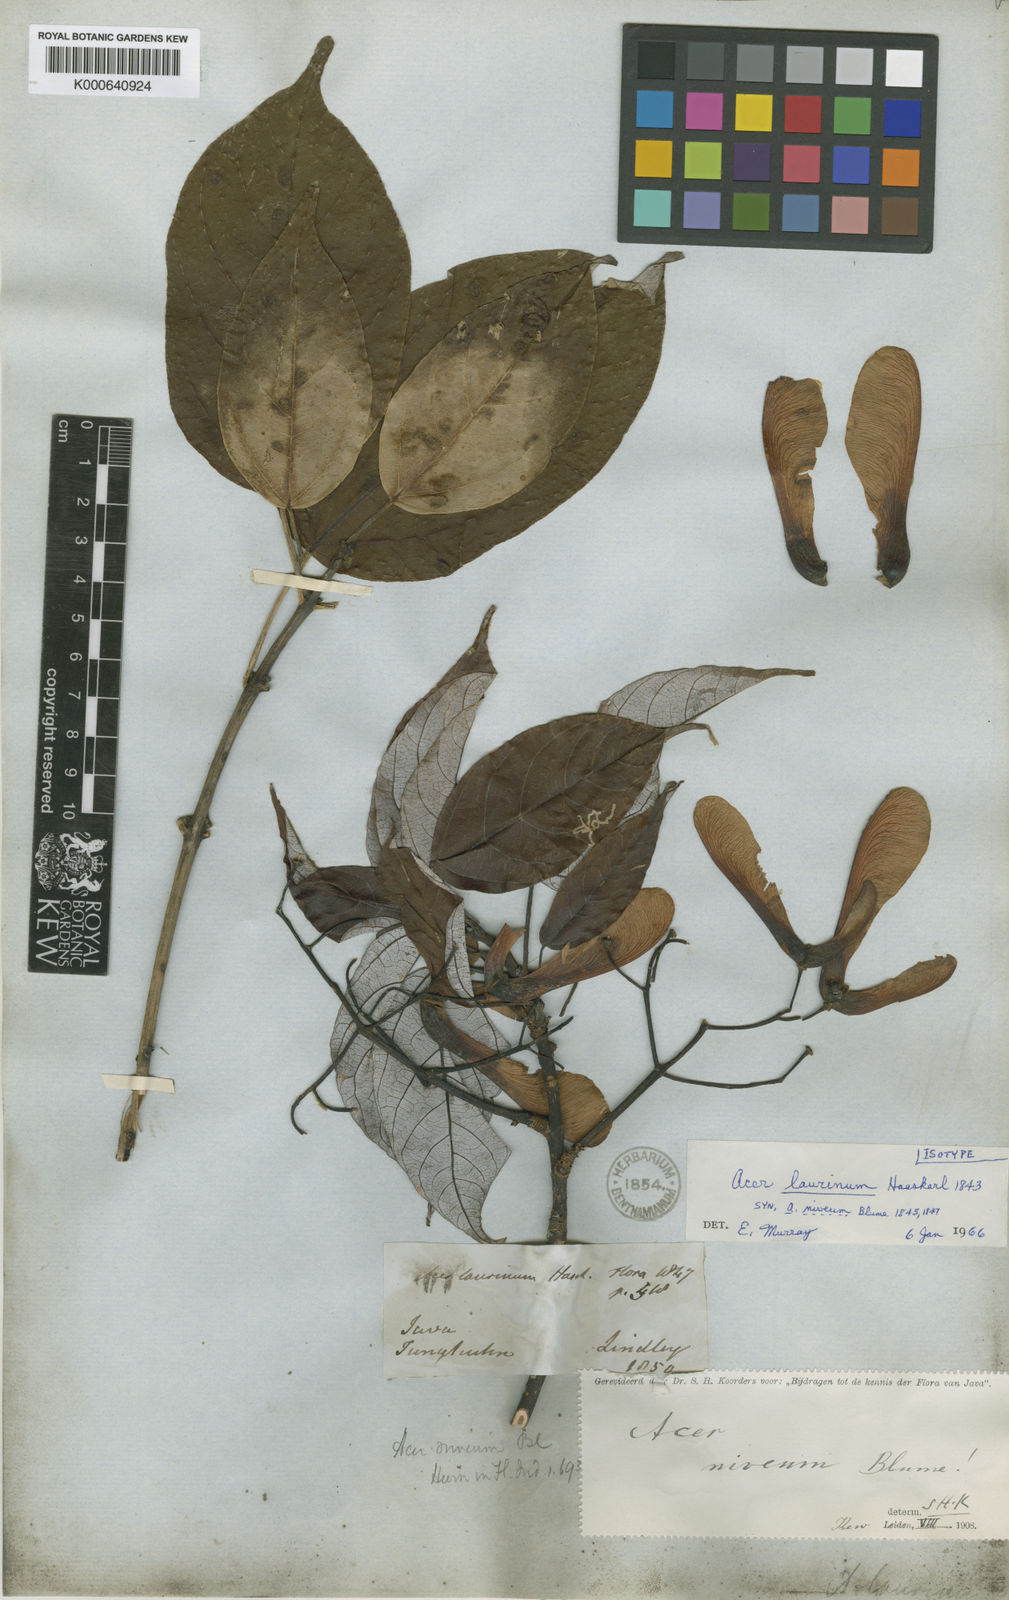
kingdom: Plantae
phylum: Tracheophyta
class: Magnoliopsida
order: Sapindales
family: Sapindaceae
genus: Acer
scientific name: Acer laurinum
